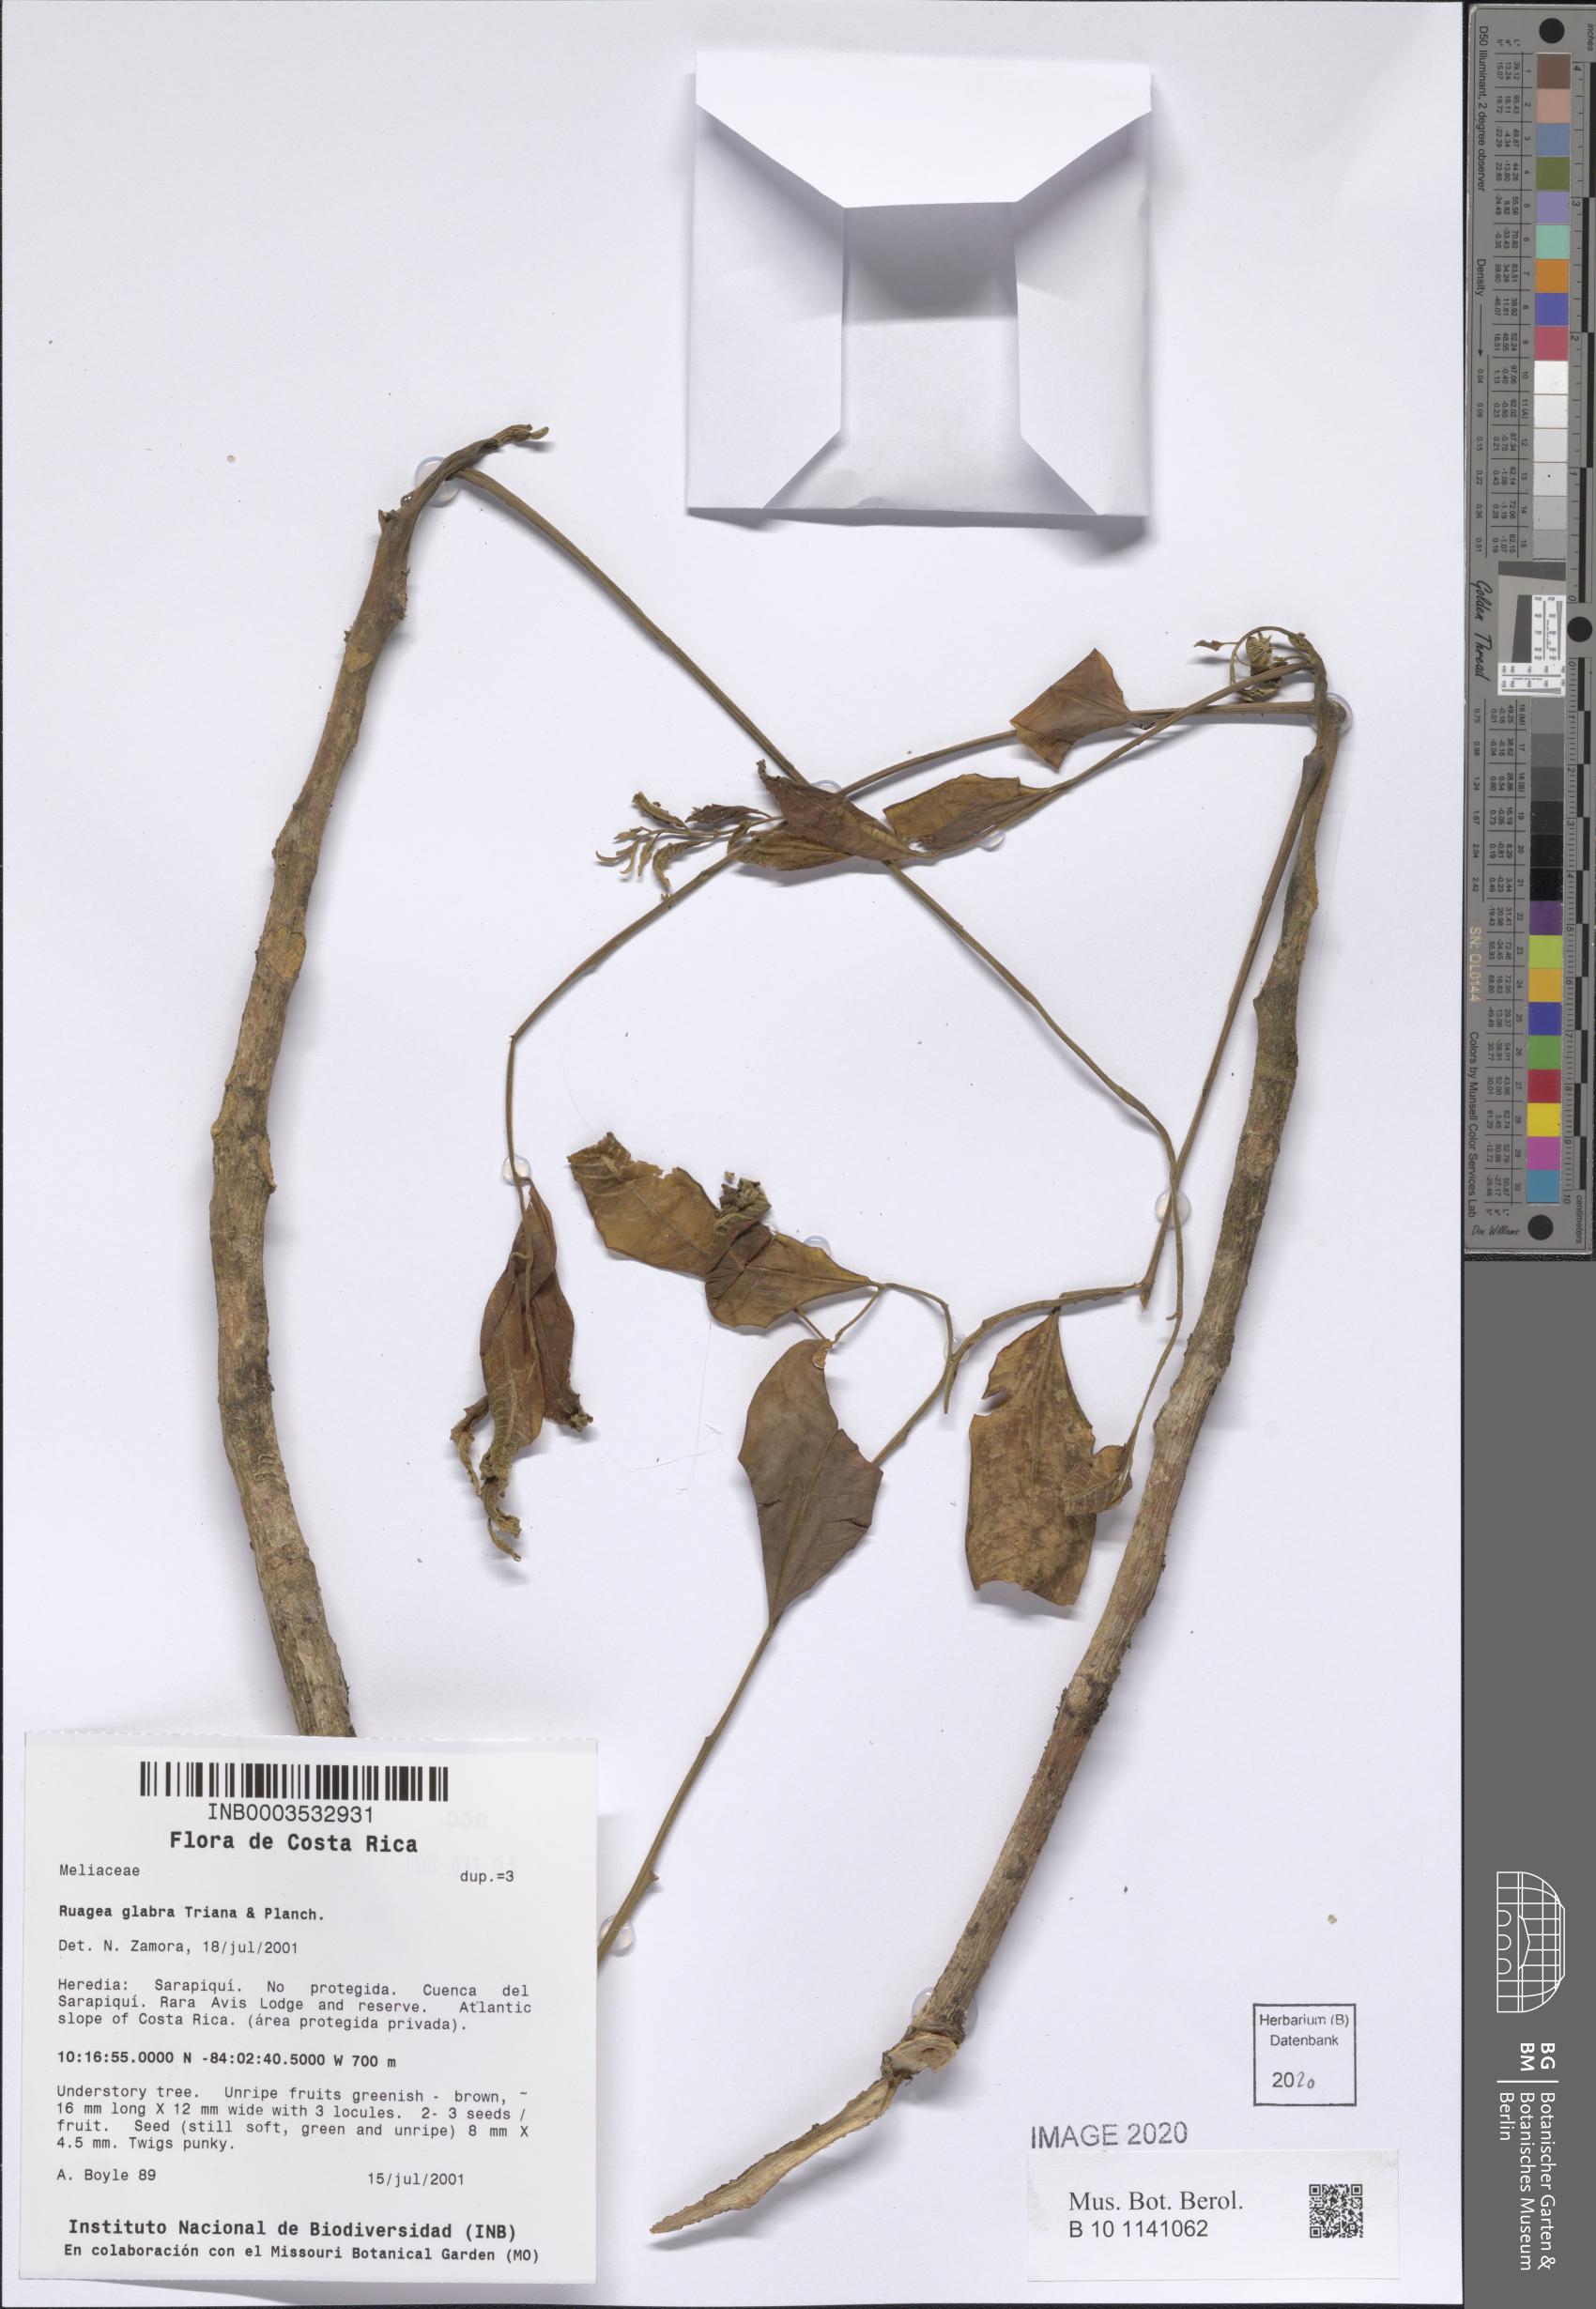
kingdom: Plantae
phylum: Tracheophyta
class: Magnoliopsida
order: Sapindales
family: Meliaceae
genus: Ruagea
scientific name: Ruagea glabra
